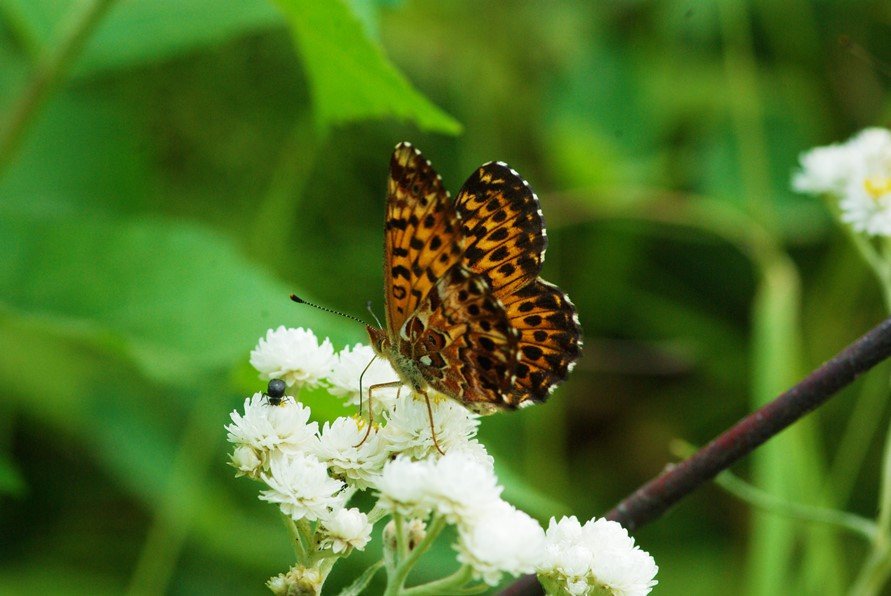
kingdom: Animalia
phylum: Arthropoda
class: Insecta
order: Lepidoptera
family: Nymphalidae
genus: Boloria
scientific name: Boloria chariclea
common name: Arctic Fritillary
